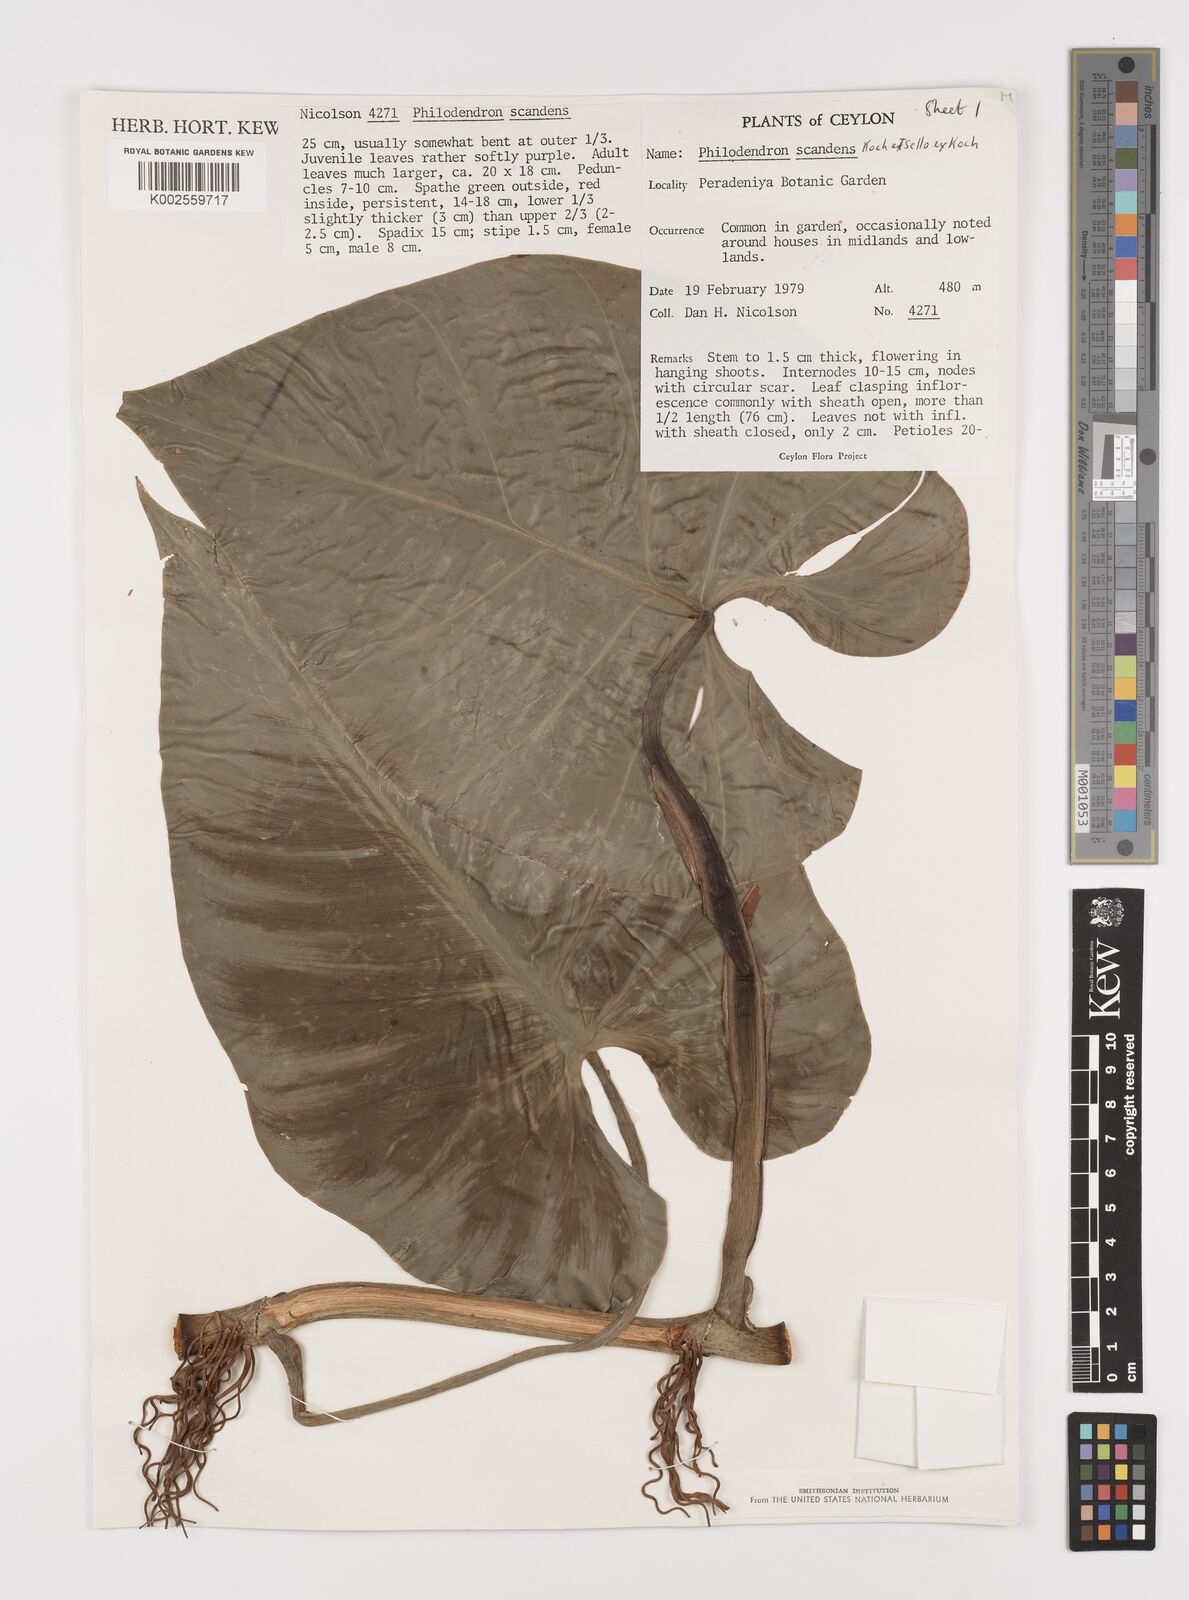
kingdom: Plantae
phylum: Tracheophyta
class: Liliopsida
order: Alismatales
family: Araceae
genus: Philodendron
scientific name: Philodendron hederaceum
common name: Vilevine
